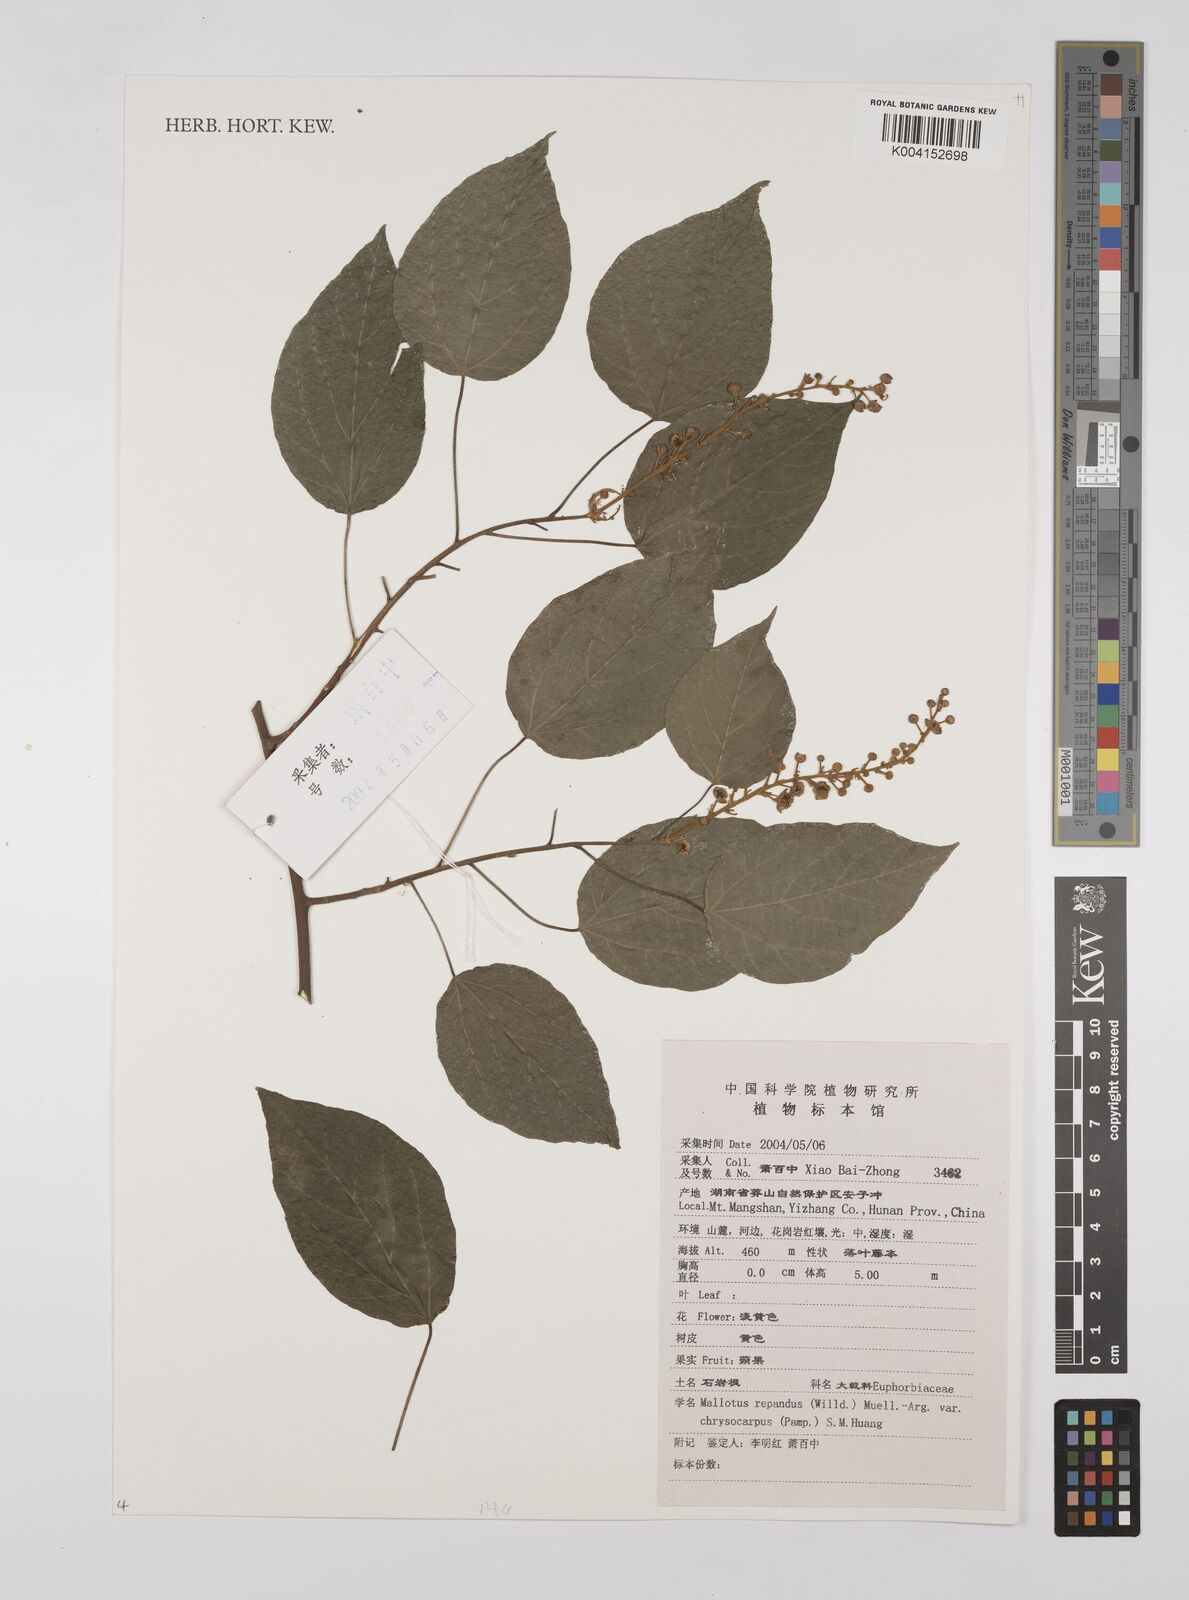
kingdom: Plantae
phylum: Tracheophyta
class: Magnoliopsida
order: Malpighiales
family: Euphorbiaceae
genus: Mallotus
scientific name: Mallotus repandus
